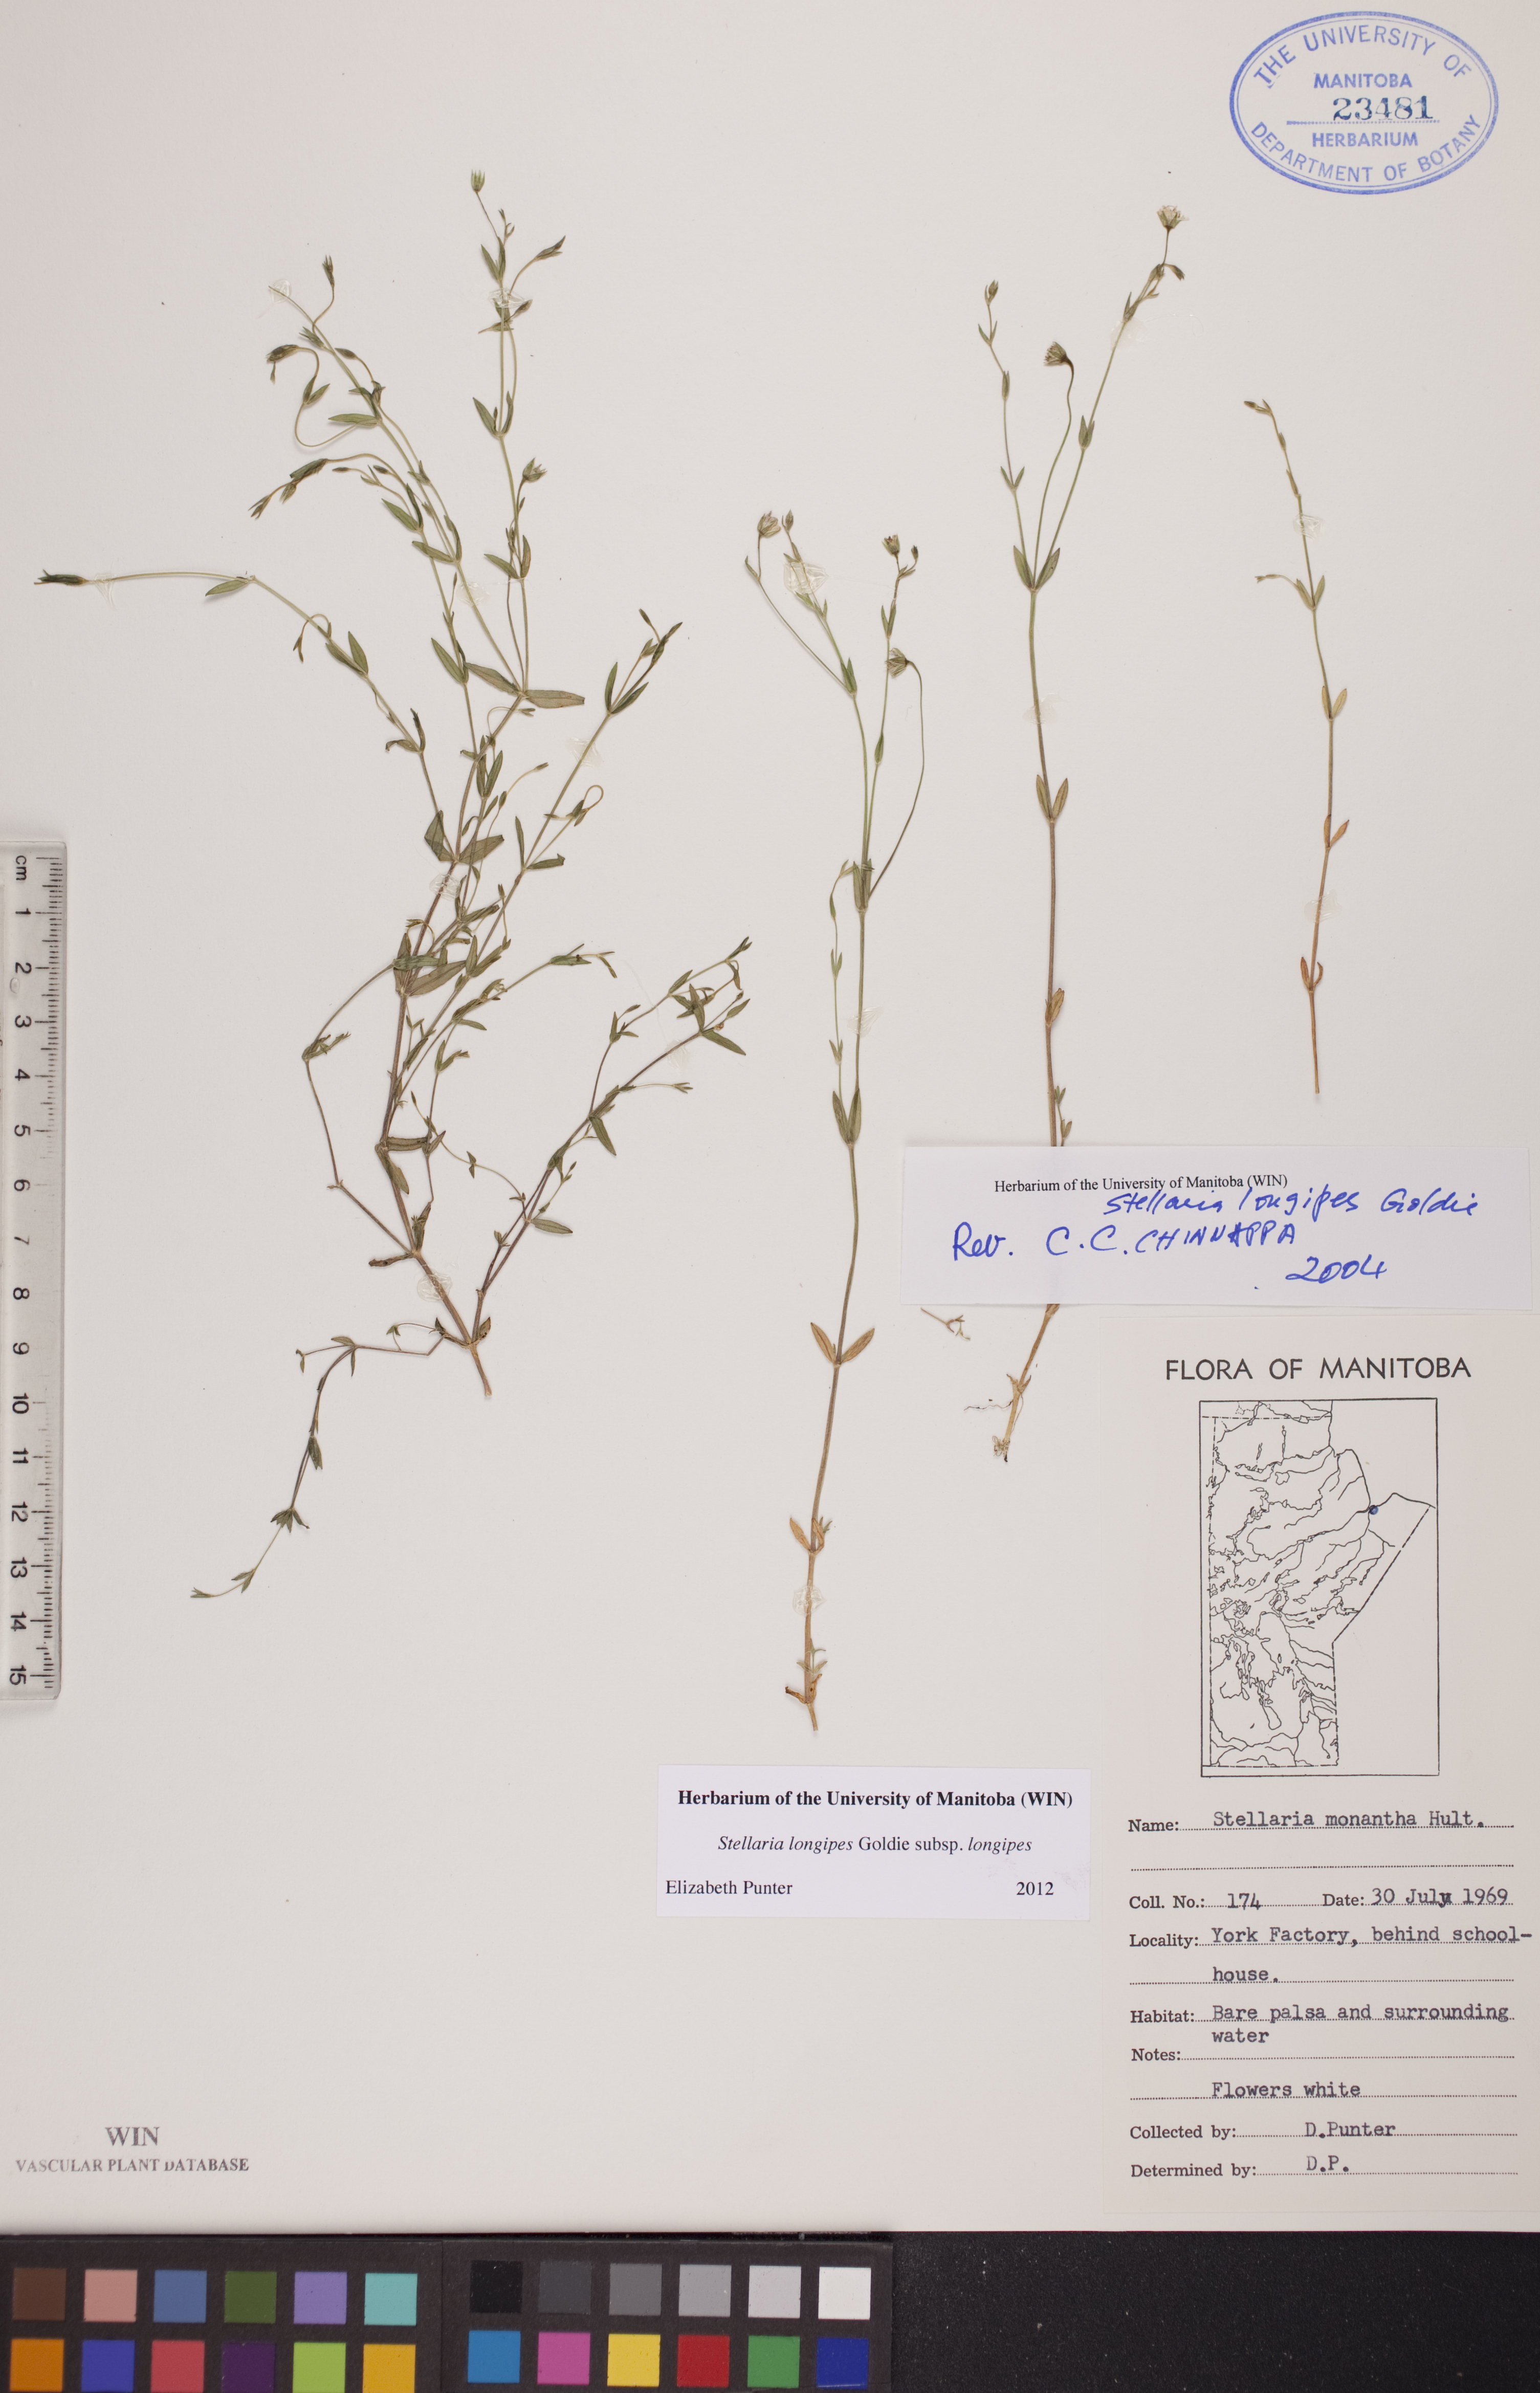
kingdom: Plantae
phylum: Tracheophyta
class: Magnoliopsida
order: Caryophyllales
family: Caryophyllaceae
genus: Stellaria
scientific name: Stellaria longipes
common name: Goldie's starwort
